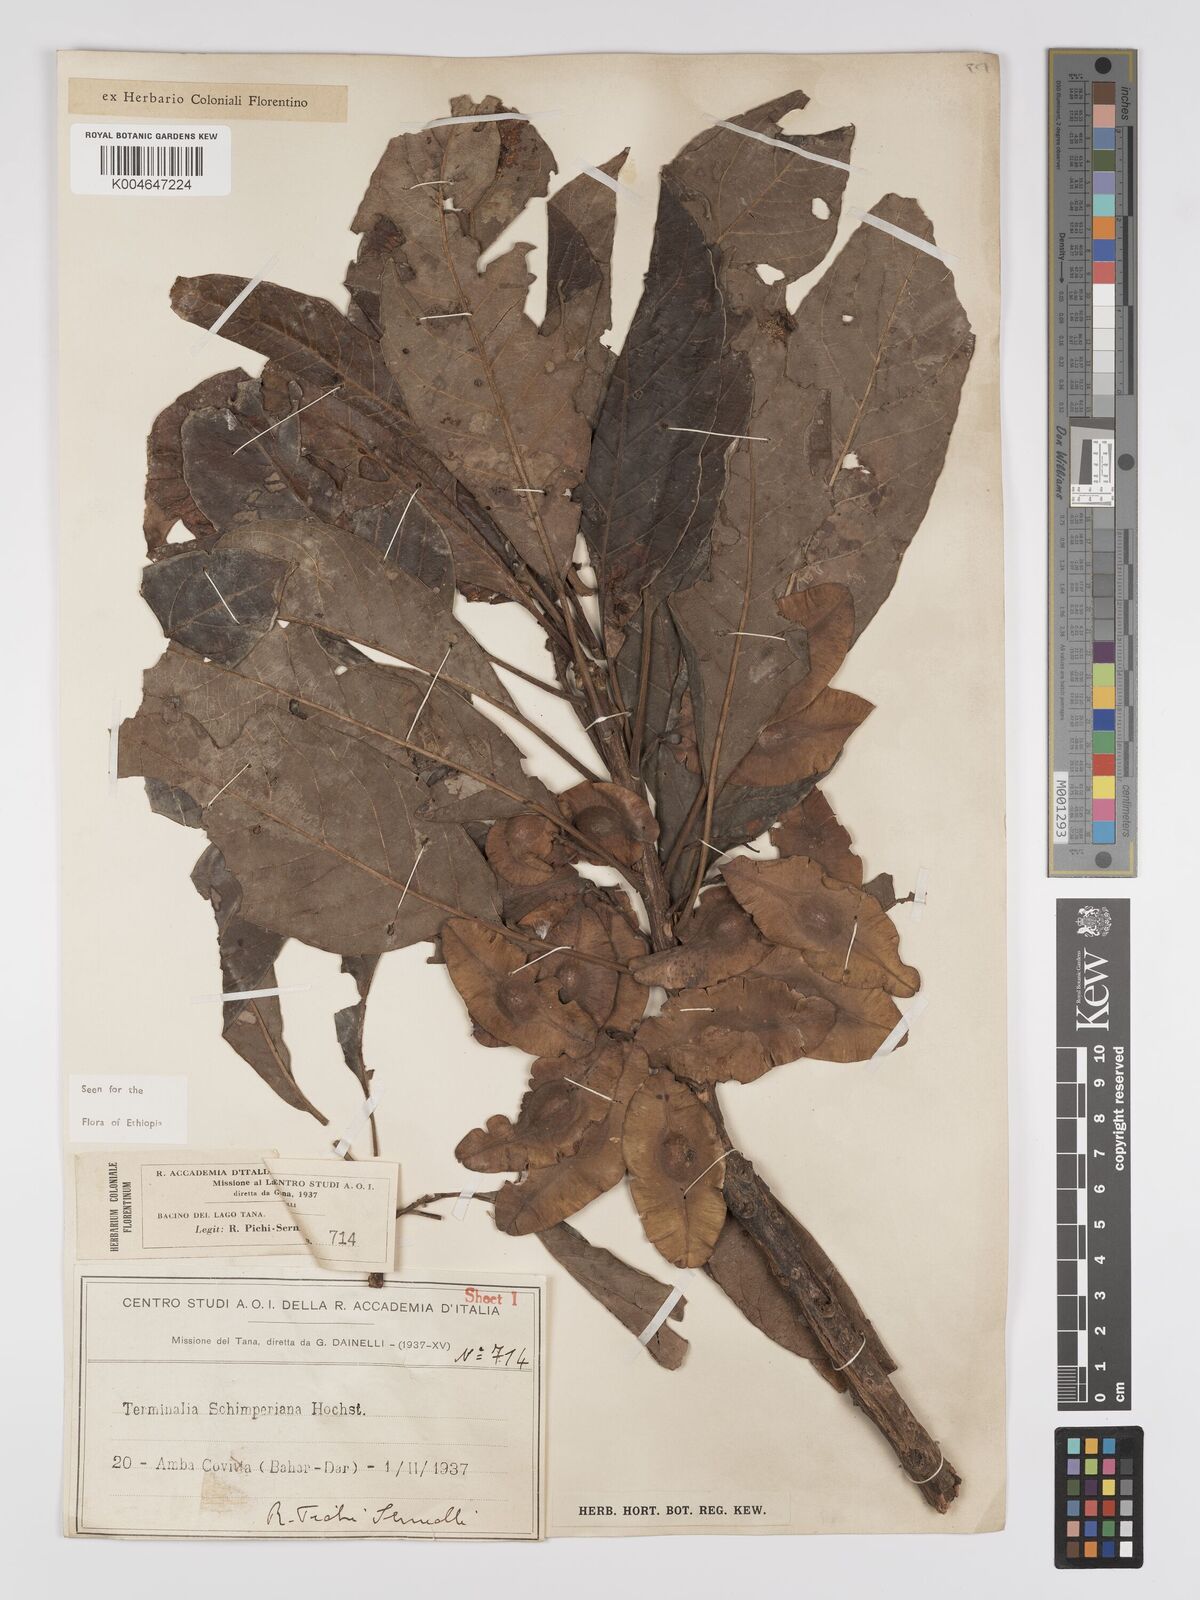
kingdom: Plantae
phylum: Tracheophyta
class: Magnoliopsida
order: Myrtales
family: Combretaceae
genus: Terminalia
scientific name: Terminalia schimperiana
